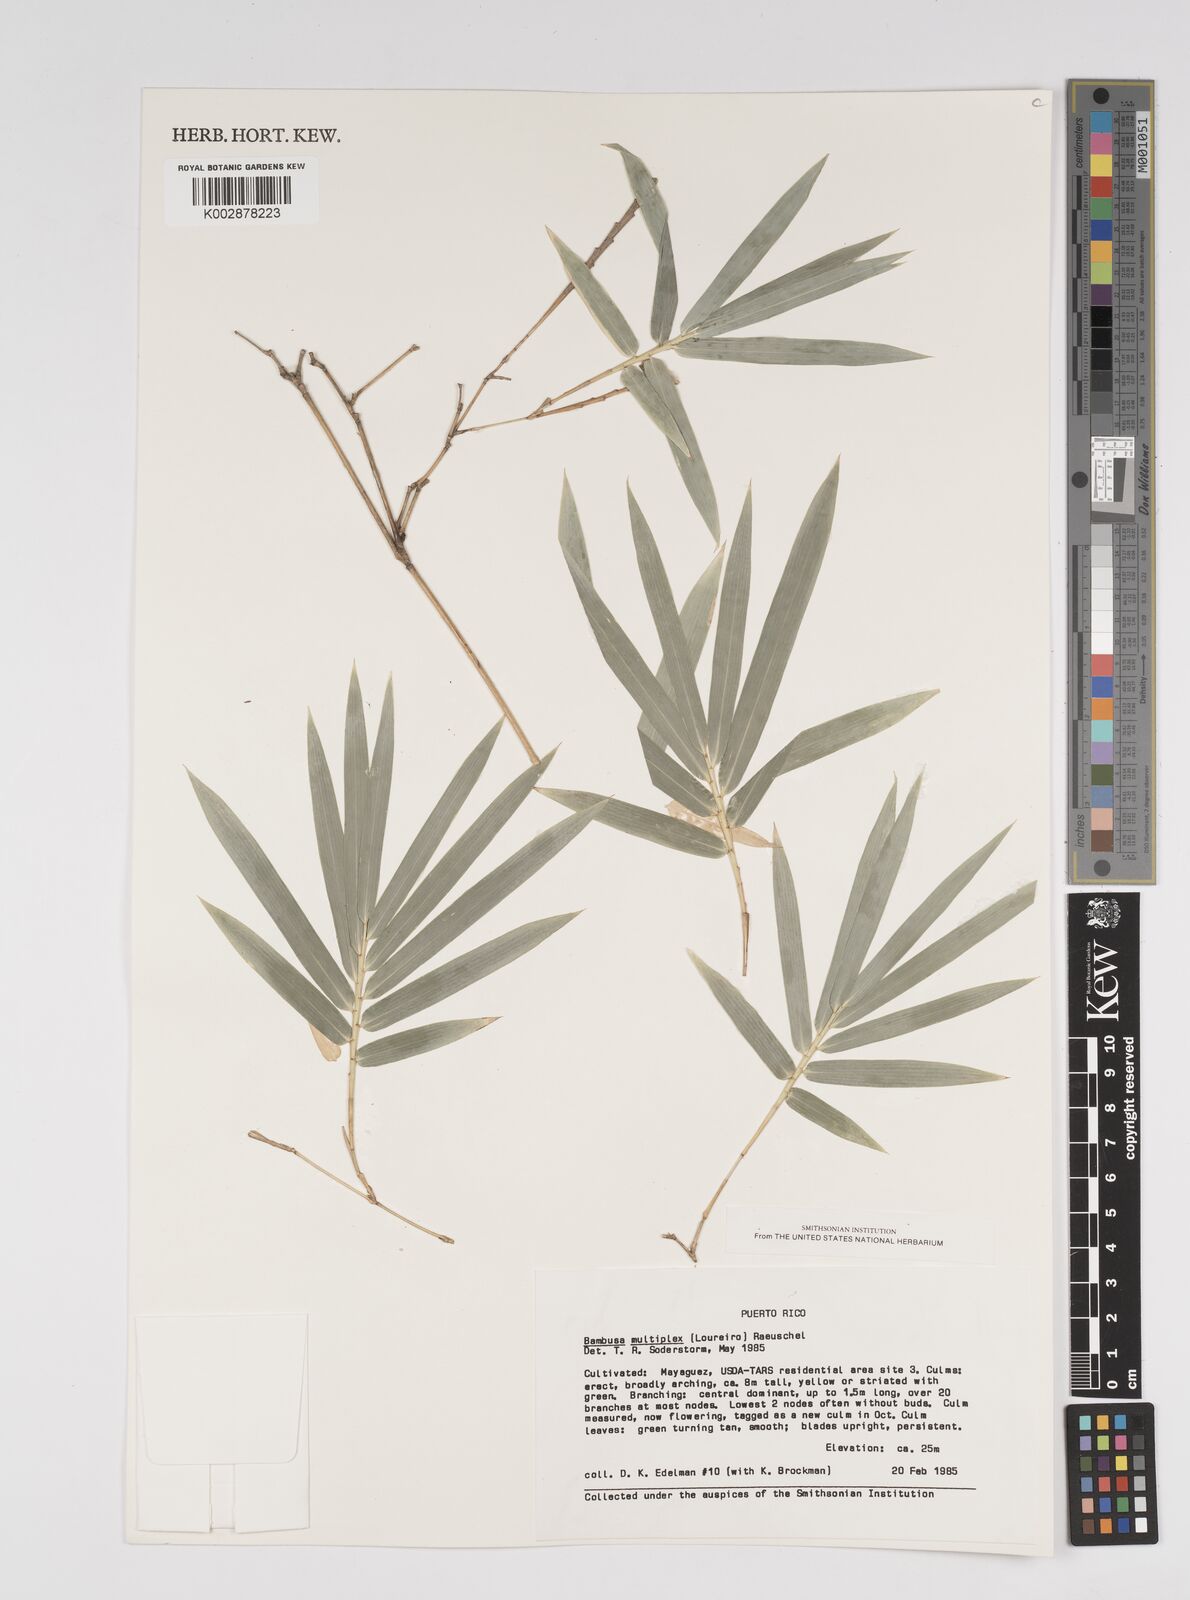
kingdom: Plantae
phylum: Tracheophyta
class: Liliopsida
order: Poales
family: Poaceae
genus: Bambusa
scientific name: Bambusa multiplex
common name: Hedge bamboo
